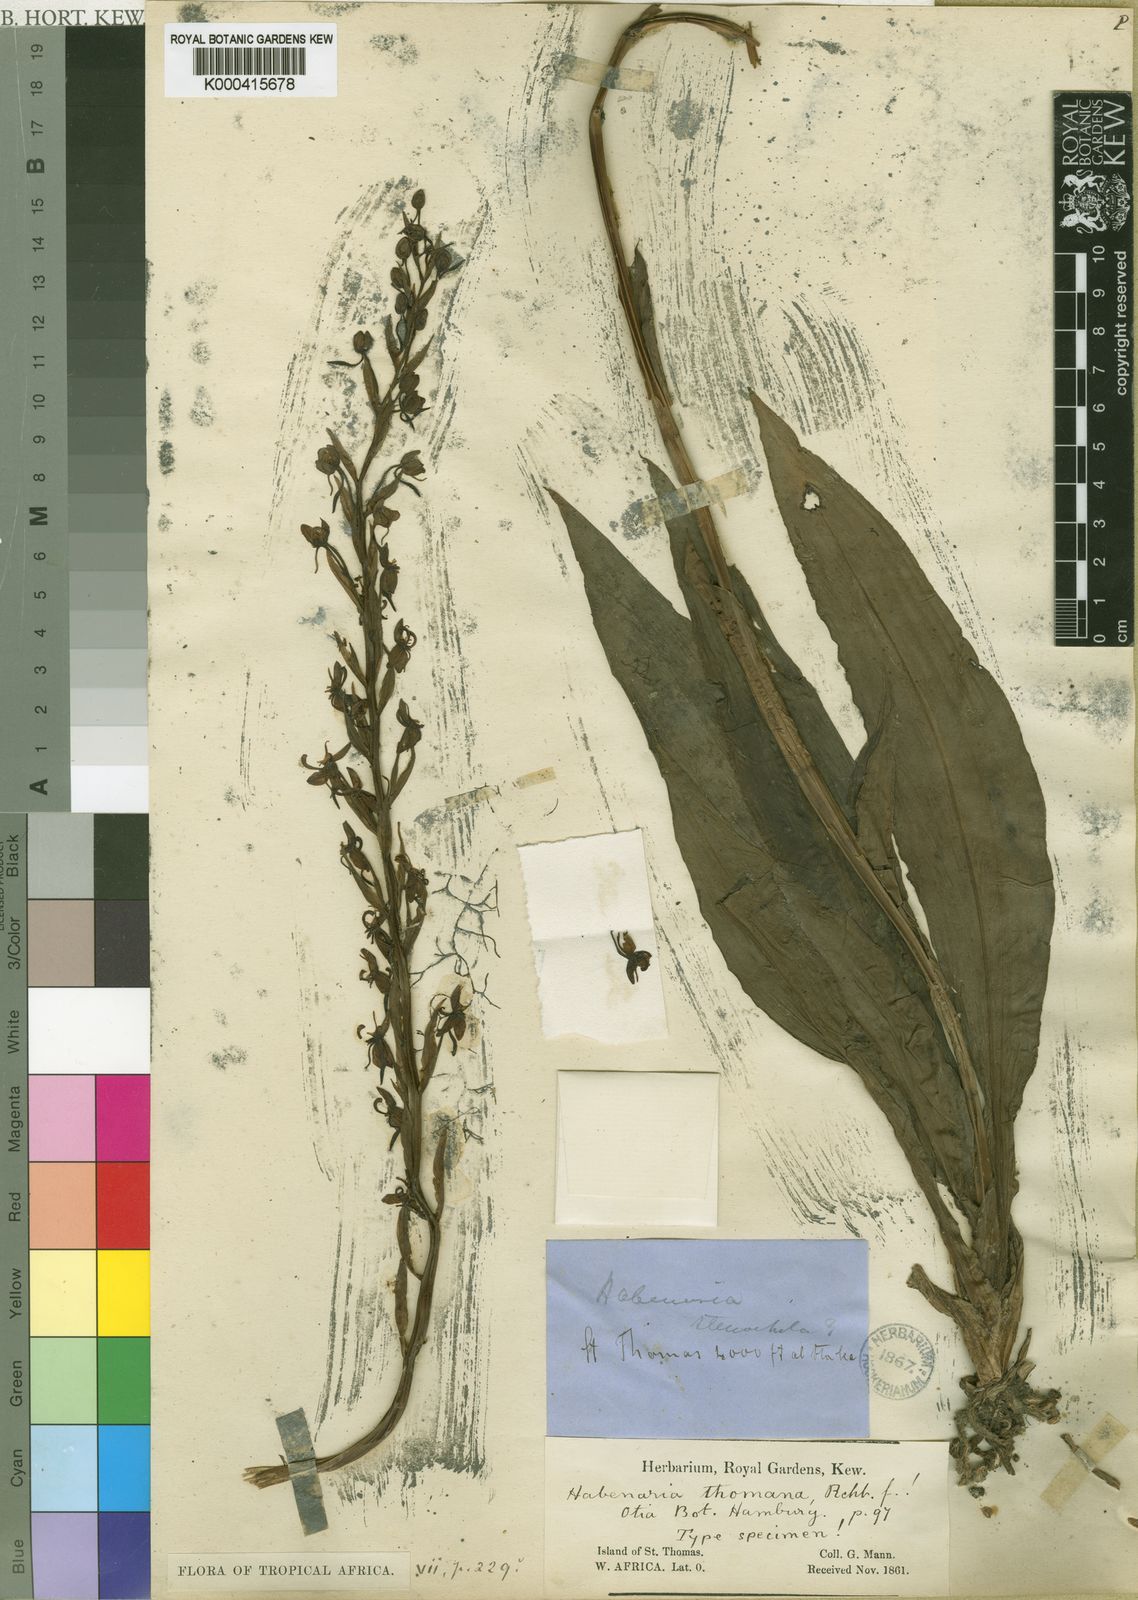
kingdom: Plantae
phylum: Tracheophyta
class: Liliopsida
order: Asparagales
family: Orchidaceae
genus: Habenaria
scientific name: Habenaria thomana
